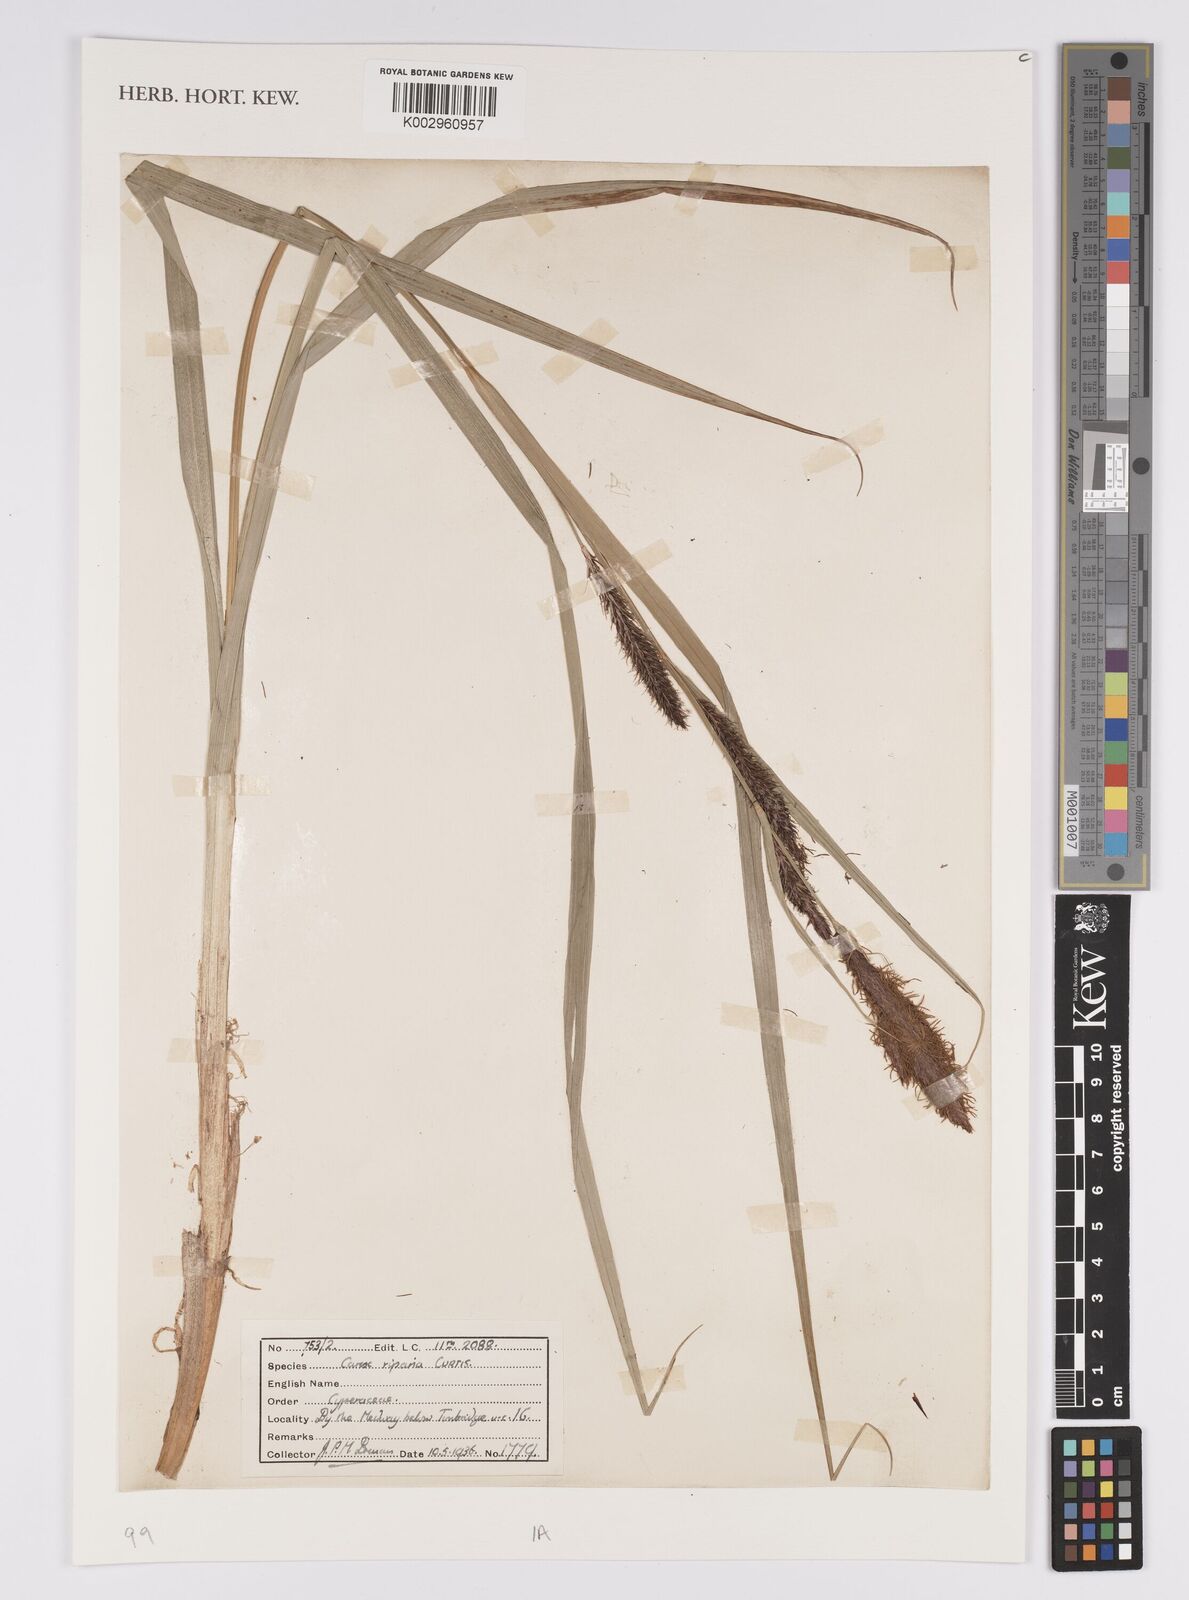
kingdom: Plantae
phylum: Tracheophyta
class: Liliopsida
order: Poales
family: Cyperaceae
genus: Carex
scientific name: Carex riparia
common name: Greater pond-sedge
